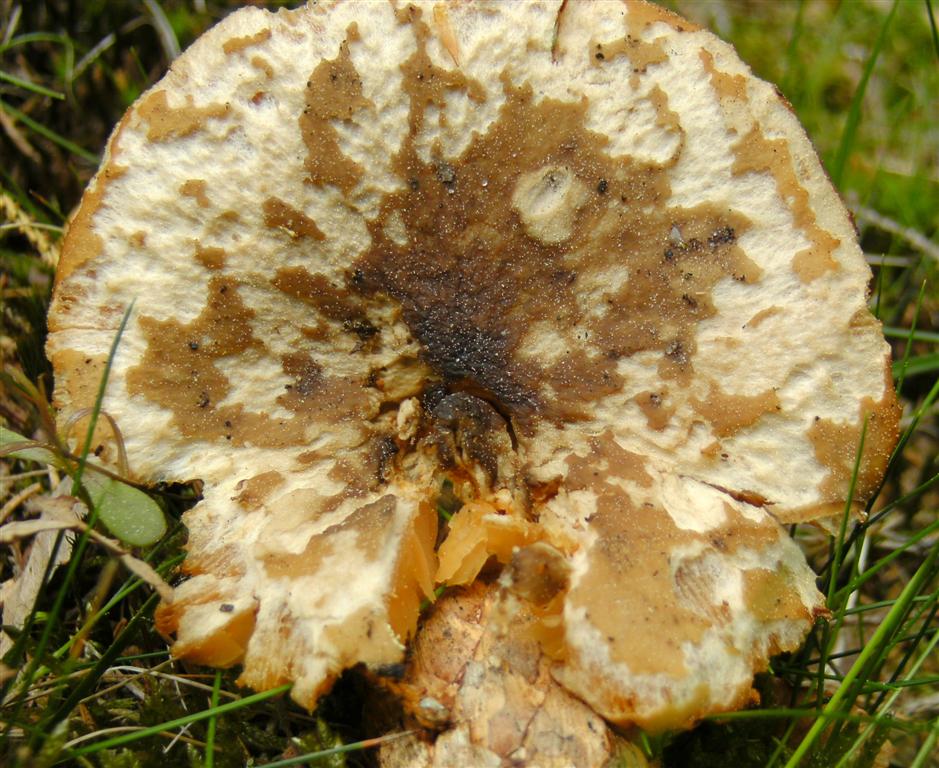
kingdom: Fungi
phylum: Basidiomycota
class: Agaricomycetes
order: Agaricales
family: Tricholomataceae
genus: Melanoleuca
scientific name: Melanoleuca cognata
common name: gyldengrå munkehat
